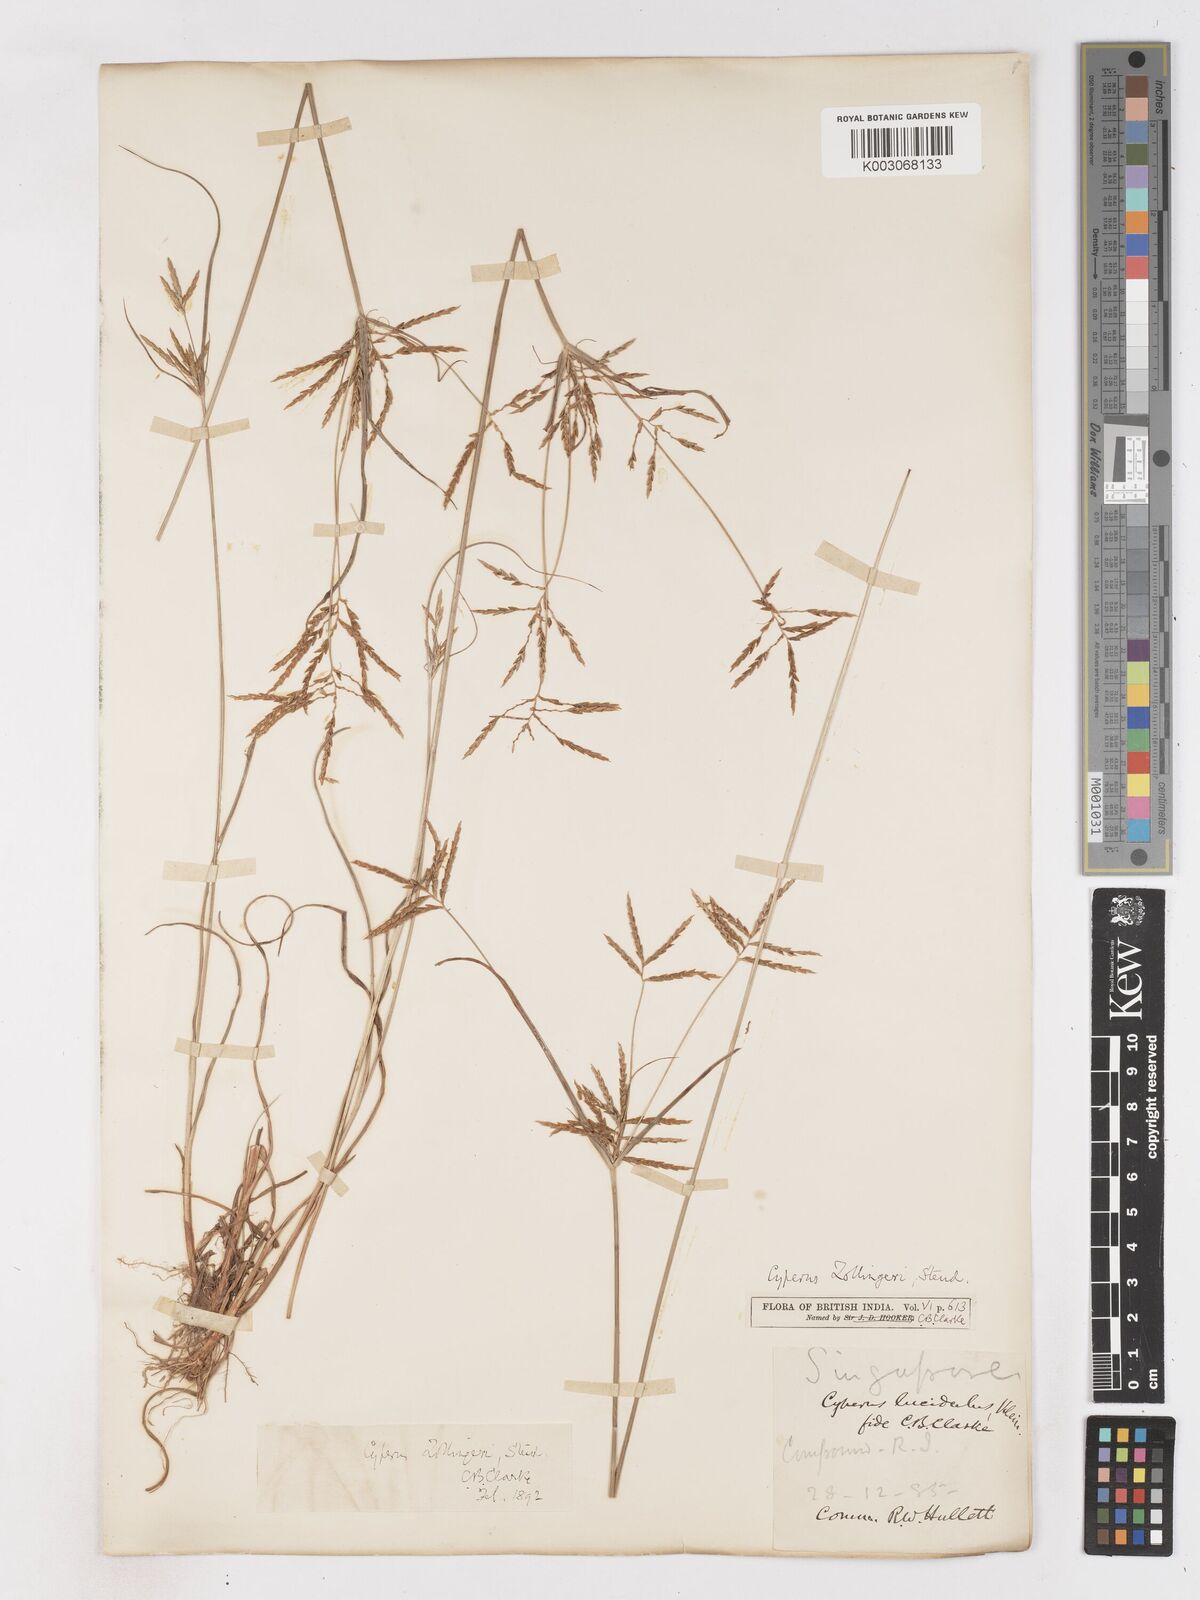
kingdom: Plantae
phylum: Tracheophyta
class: Liliopsida
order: Poales
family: Cyperaceae
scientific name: Cyperaceae
